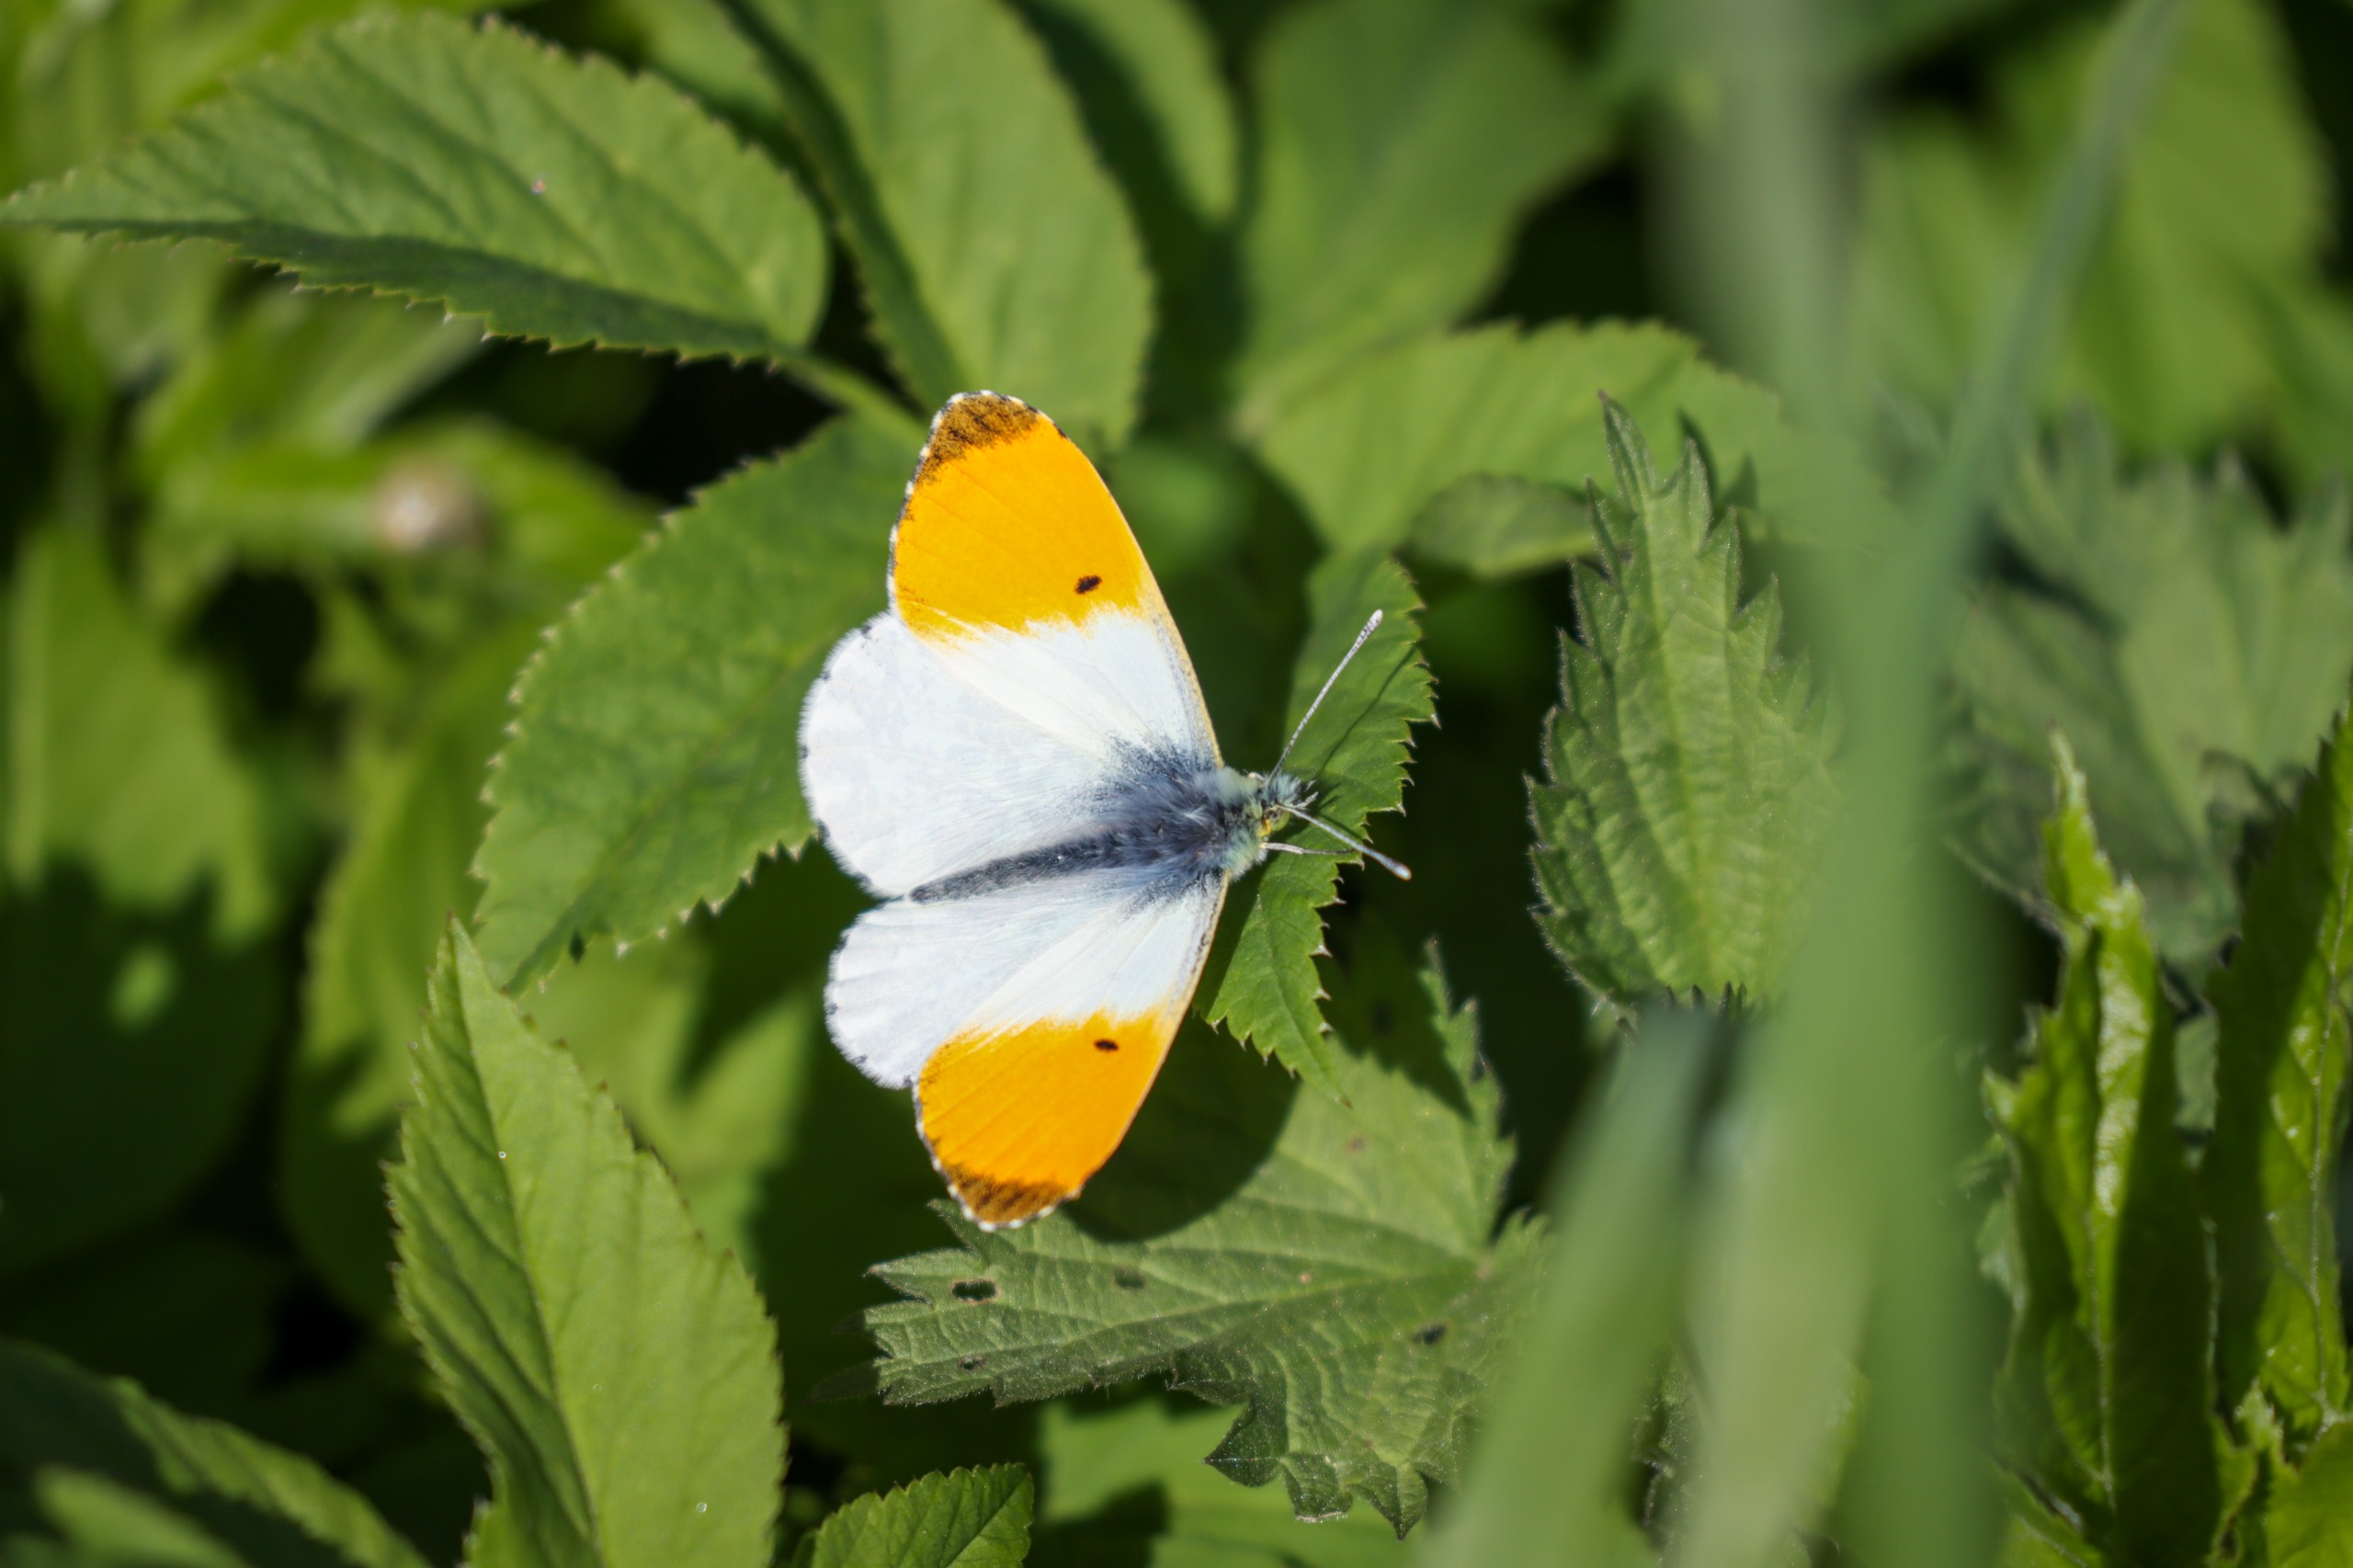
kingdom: Animalia
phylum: Arthropoda
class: Insecta
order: Lepidoptera
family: Pieridae
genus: Anthocharis
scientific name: Anthocharis cardamines
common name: Aurora
